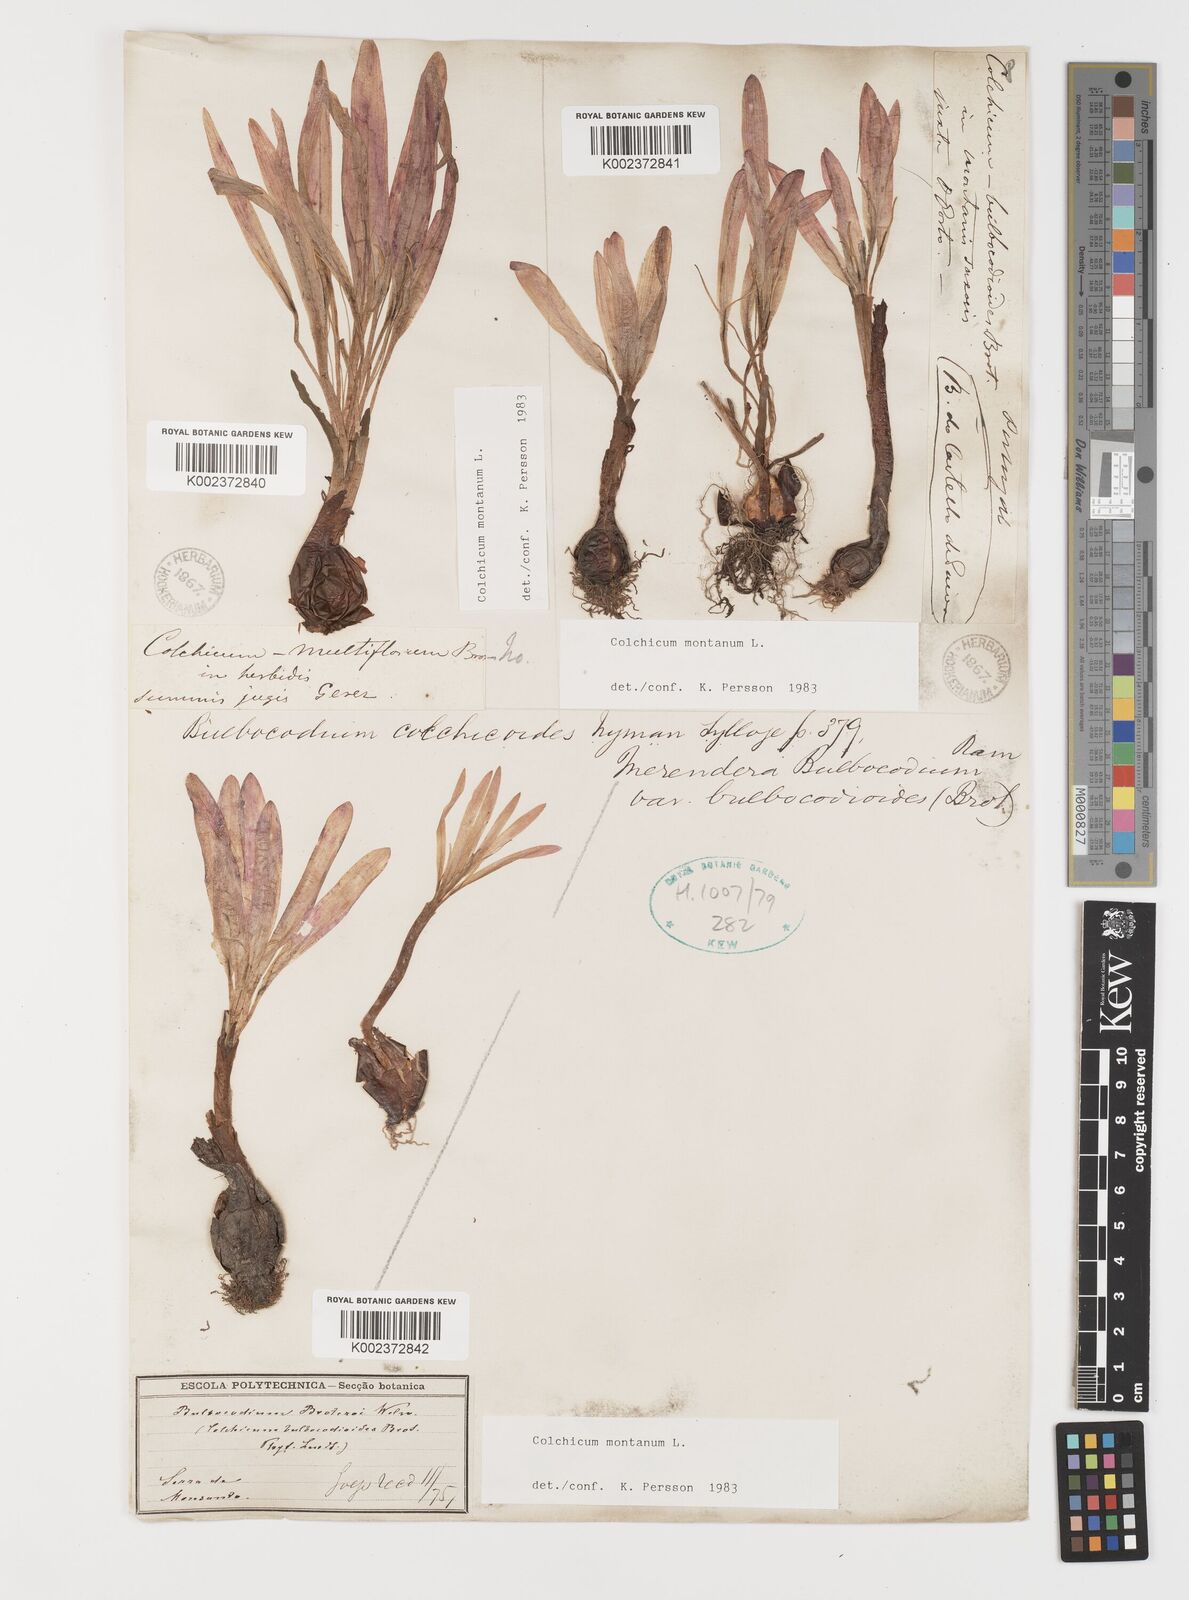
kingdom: Plantae
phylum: Tracheophyta
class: Liliopsida
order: Liliales
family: Colchicaceae
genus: Colchicum
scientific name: Colchicum montanum
